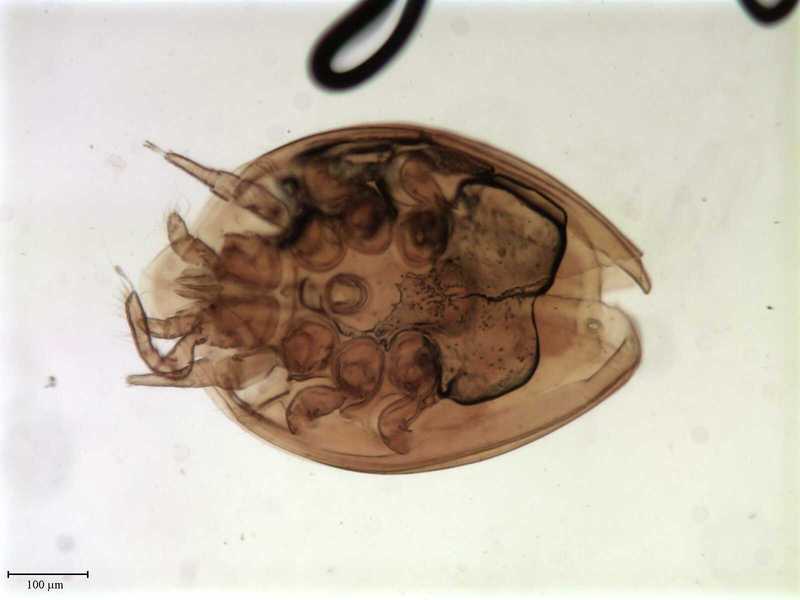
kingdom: Animalia
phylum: Arthropoda
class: Arachnida
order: Mesostigmata
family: Uropodidae
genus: Uroobovella
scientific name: Uroobovella bistellaris
